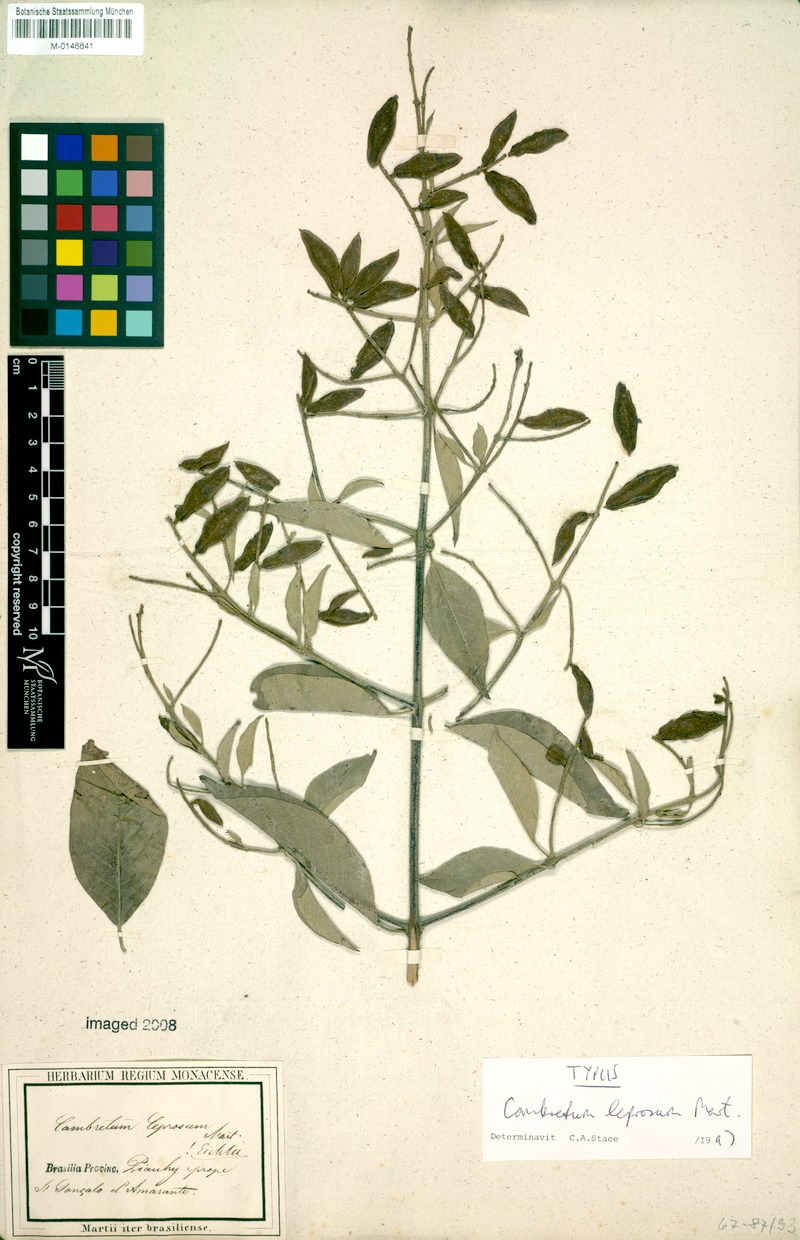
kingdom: Plantae
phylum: Tracheophyta
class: Magnoliopsida
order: Myrtales
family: Combretaceae
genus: Combretum
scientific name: Combretum leprosum
